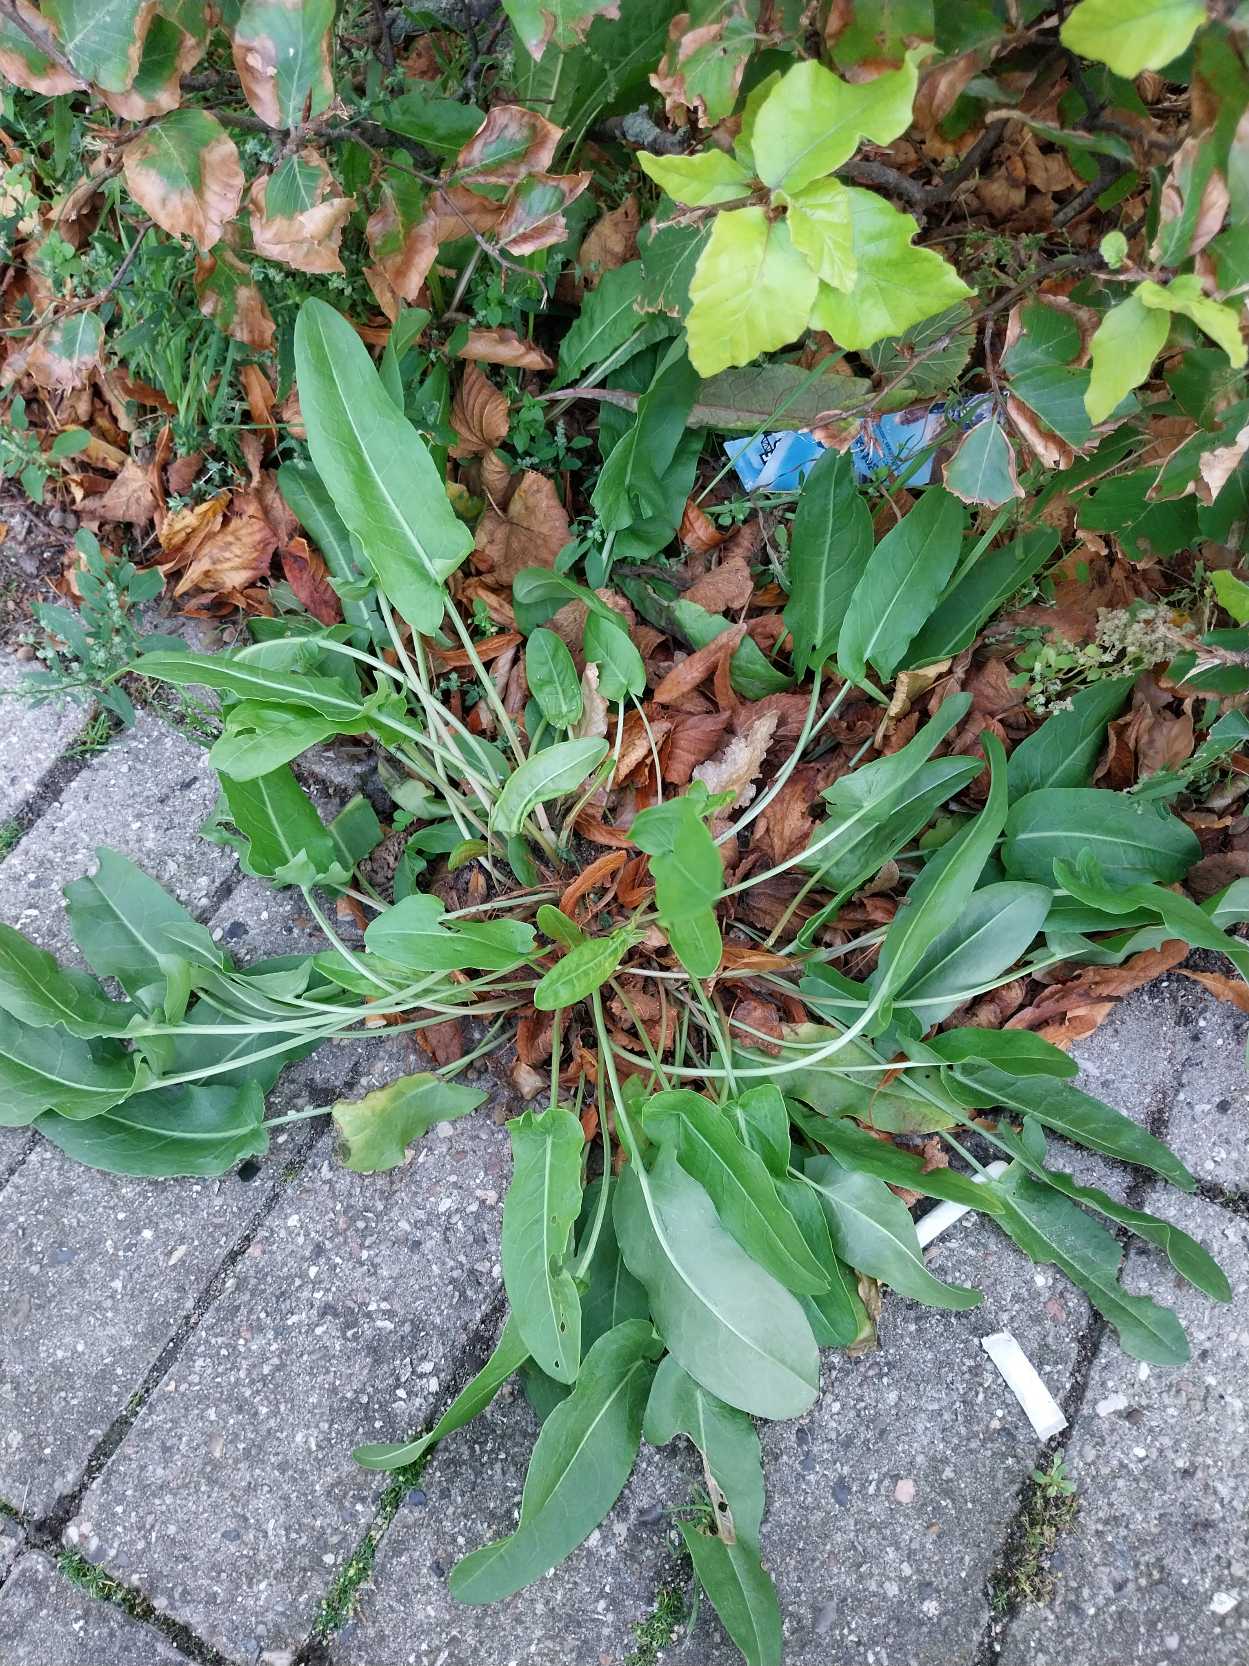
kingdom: Plantae
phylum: Tracheophyta
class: Magnoliopsida
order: Caryophyllales
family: Polygonaceae
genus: Rumex
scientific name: Rumex thyrsiflorus
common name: Dusk-syre
